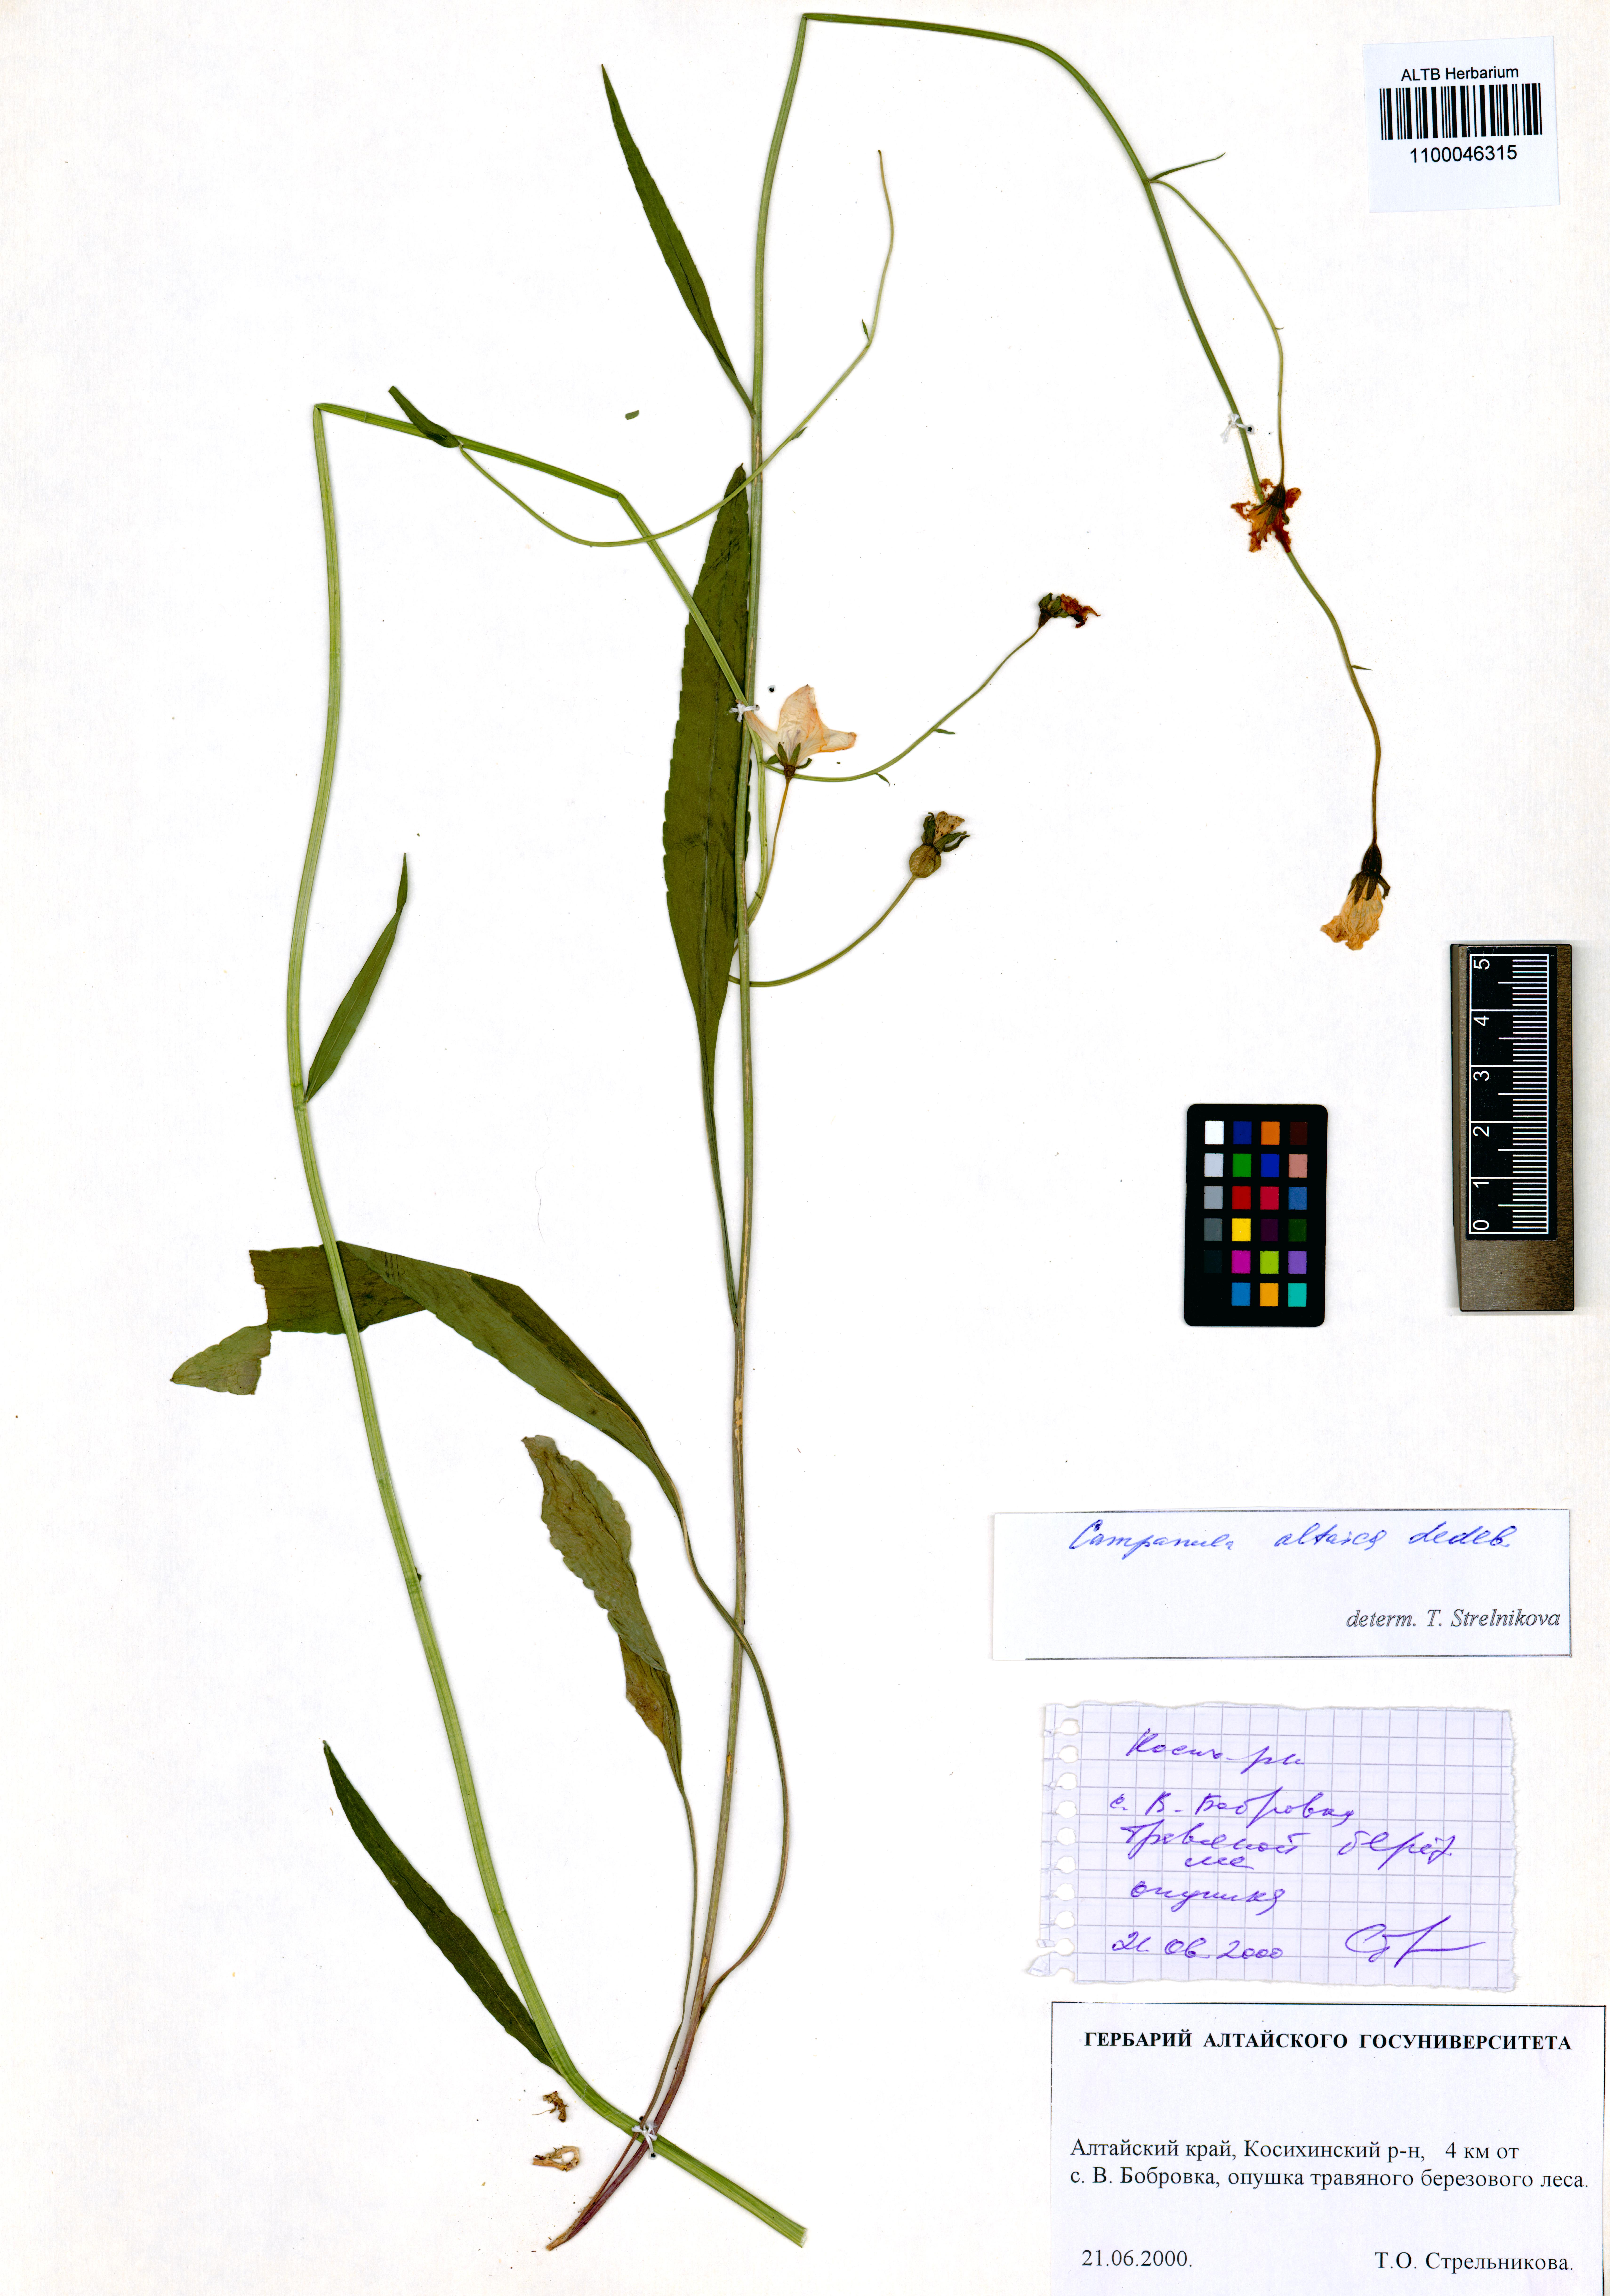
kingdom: Plantae
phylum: Tracheophyta
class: Magnoliopsida
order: Asterales
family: Campanulaceae
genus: Campanula
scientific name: Campanula stevenii
